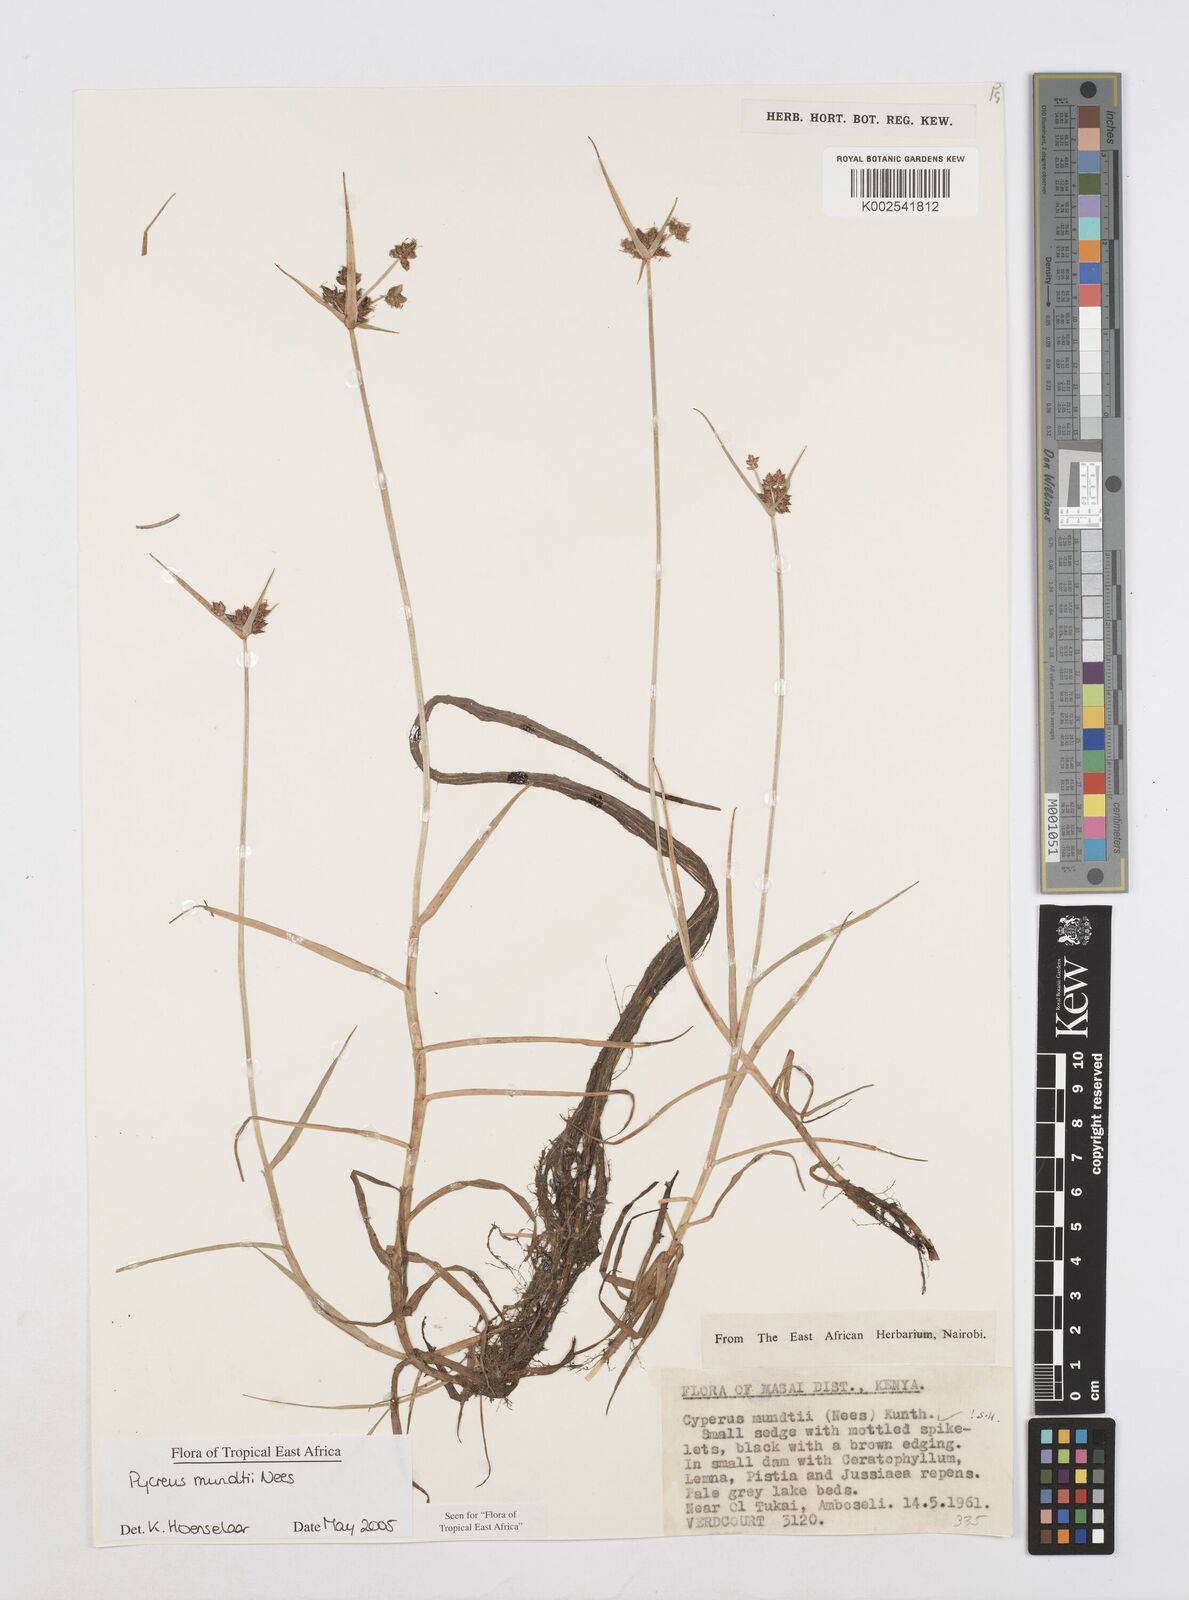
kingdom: Plantae
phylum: Tracheophyta
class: Liliopsida
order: Poales
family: Cyperaceae
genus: Cyperus
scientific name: Cyperus mundii
